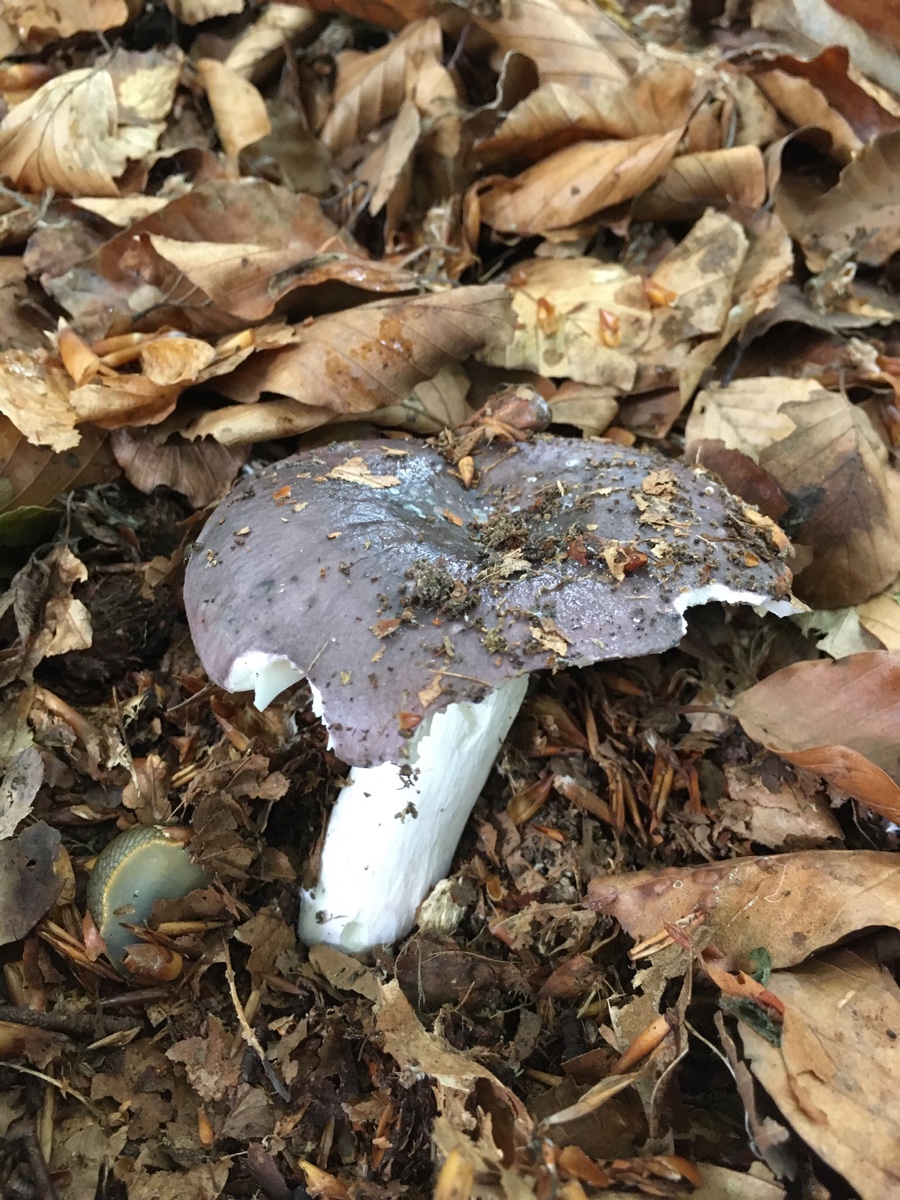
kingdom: Fungi
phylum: Basidiomycota
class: Agaricomycetes
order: Russulales
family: Russulaceae
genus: Russula
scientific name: Russula cyanoxantha
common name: broget skørhat
